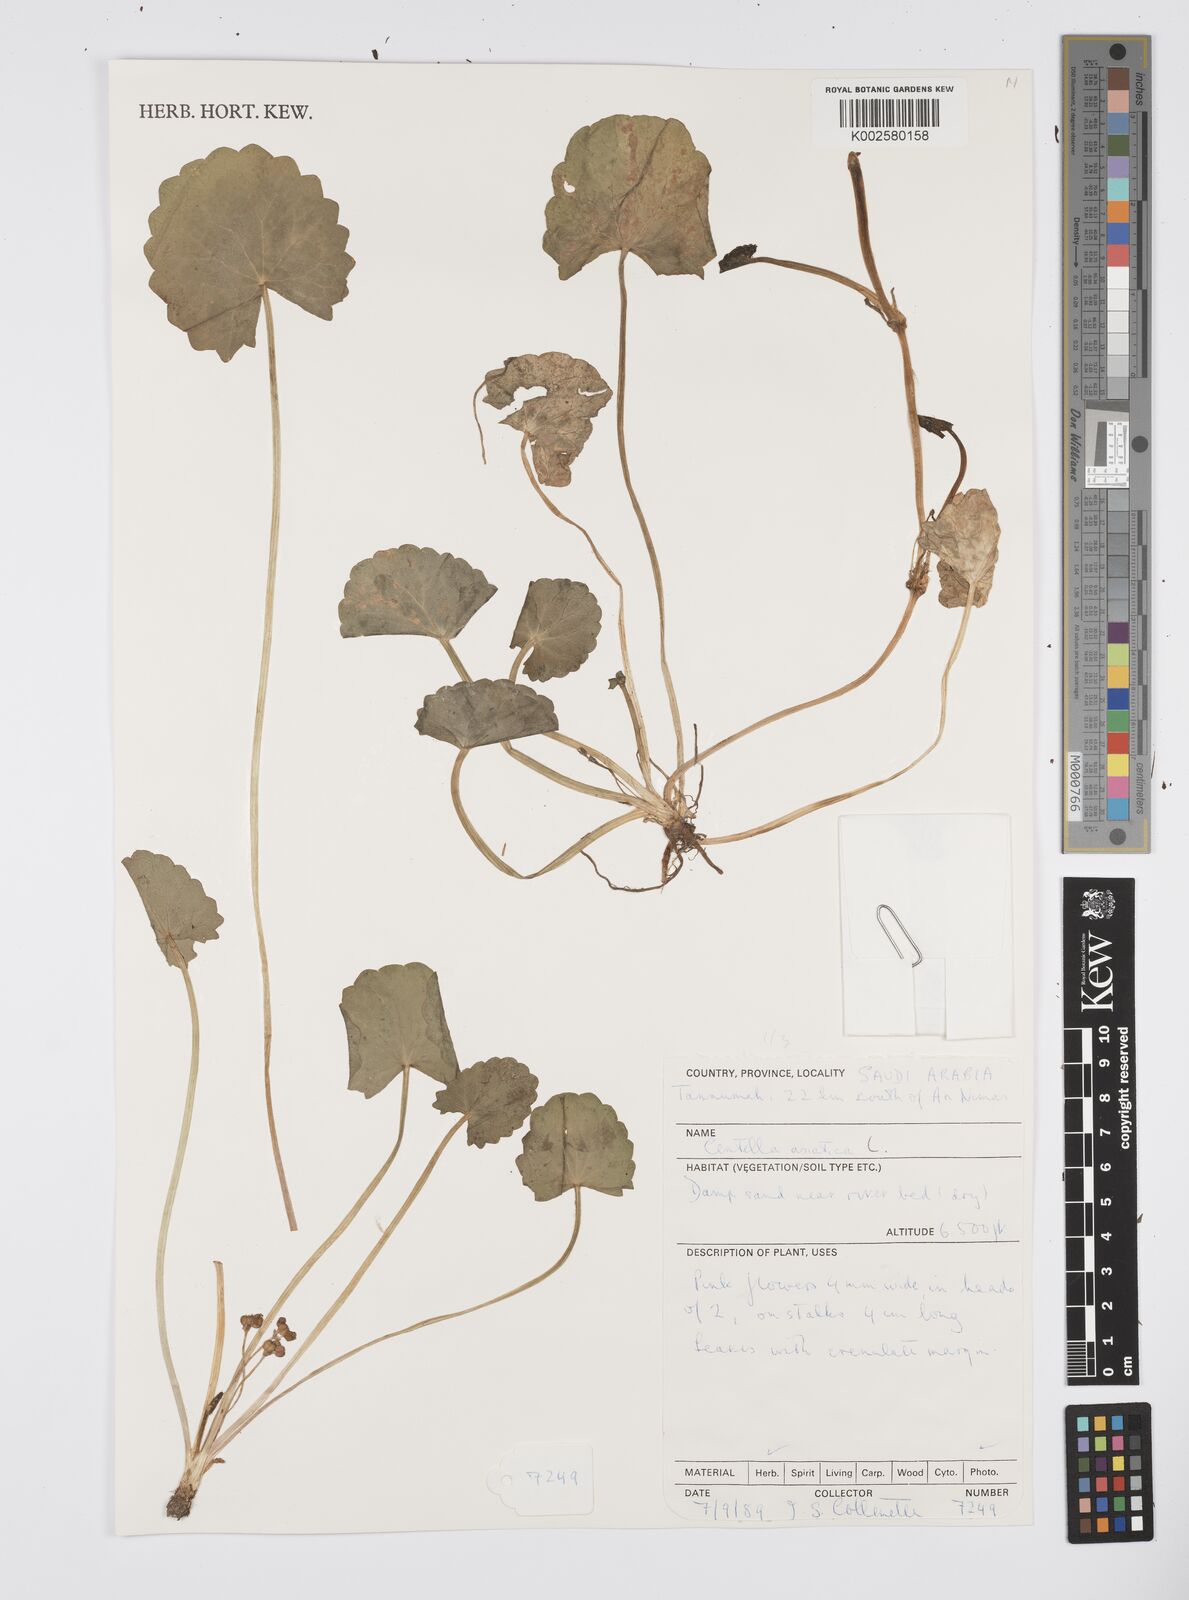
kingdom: Plantae
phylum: Tracheophyta
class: Magnoliopsida
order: Apiales
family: Apiaceae
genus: Centella
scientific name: Centella asiatica
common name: Spadeleaf
